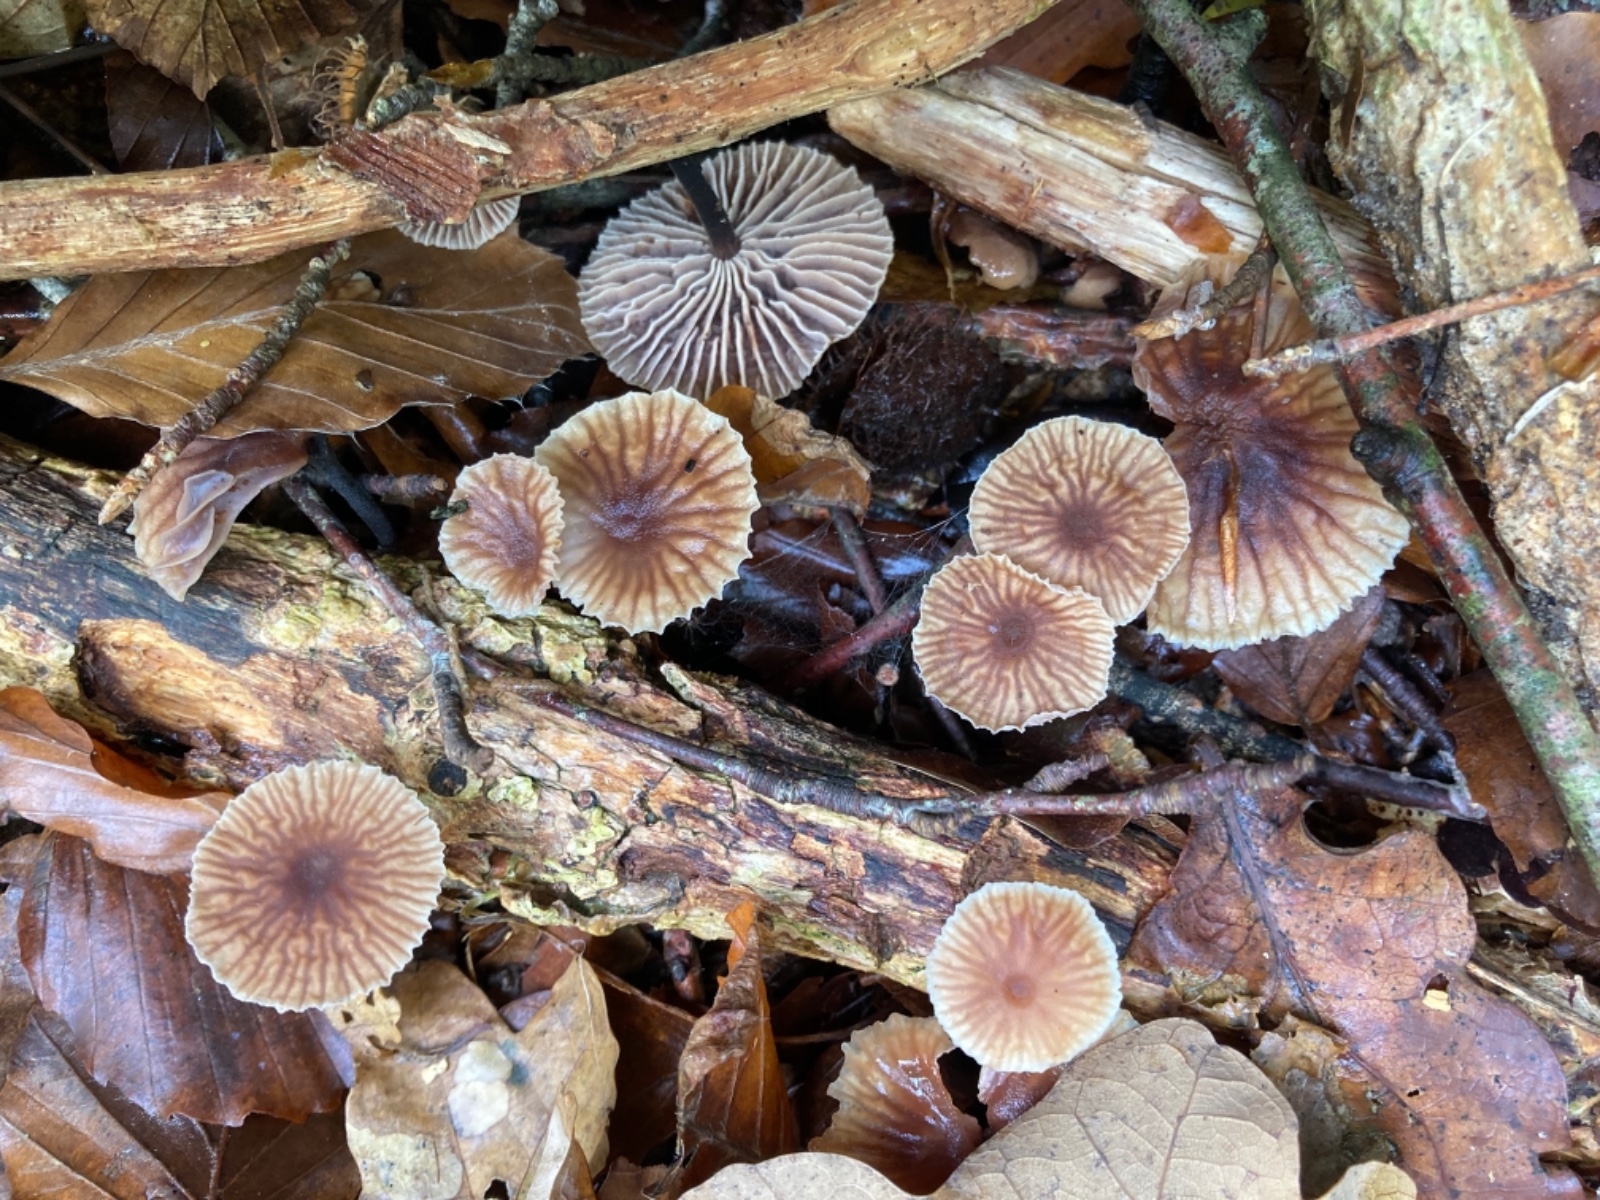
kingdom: Fungi
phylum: Basidiomycota
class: Agaricomycetes
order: Agaricales
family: Omphalotaceae
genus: Gymnopus
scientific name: Gymnopus foetidus
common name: stinkende fladhat
